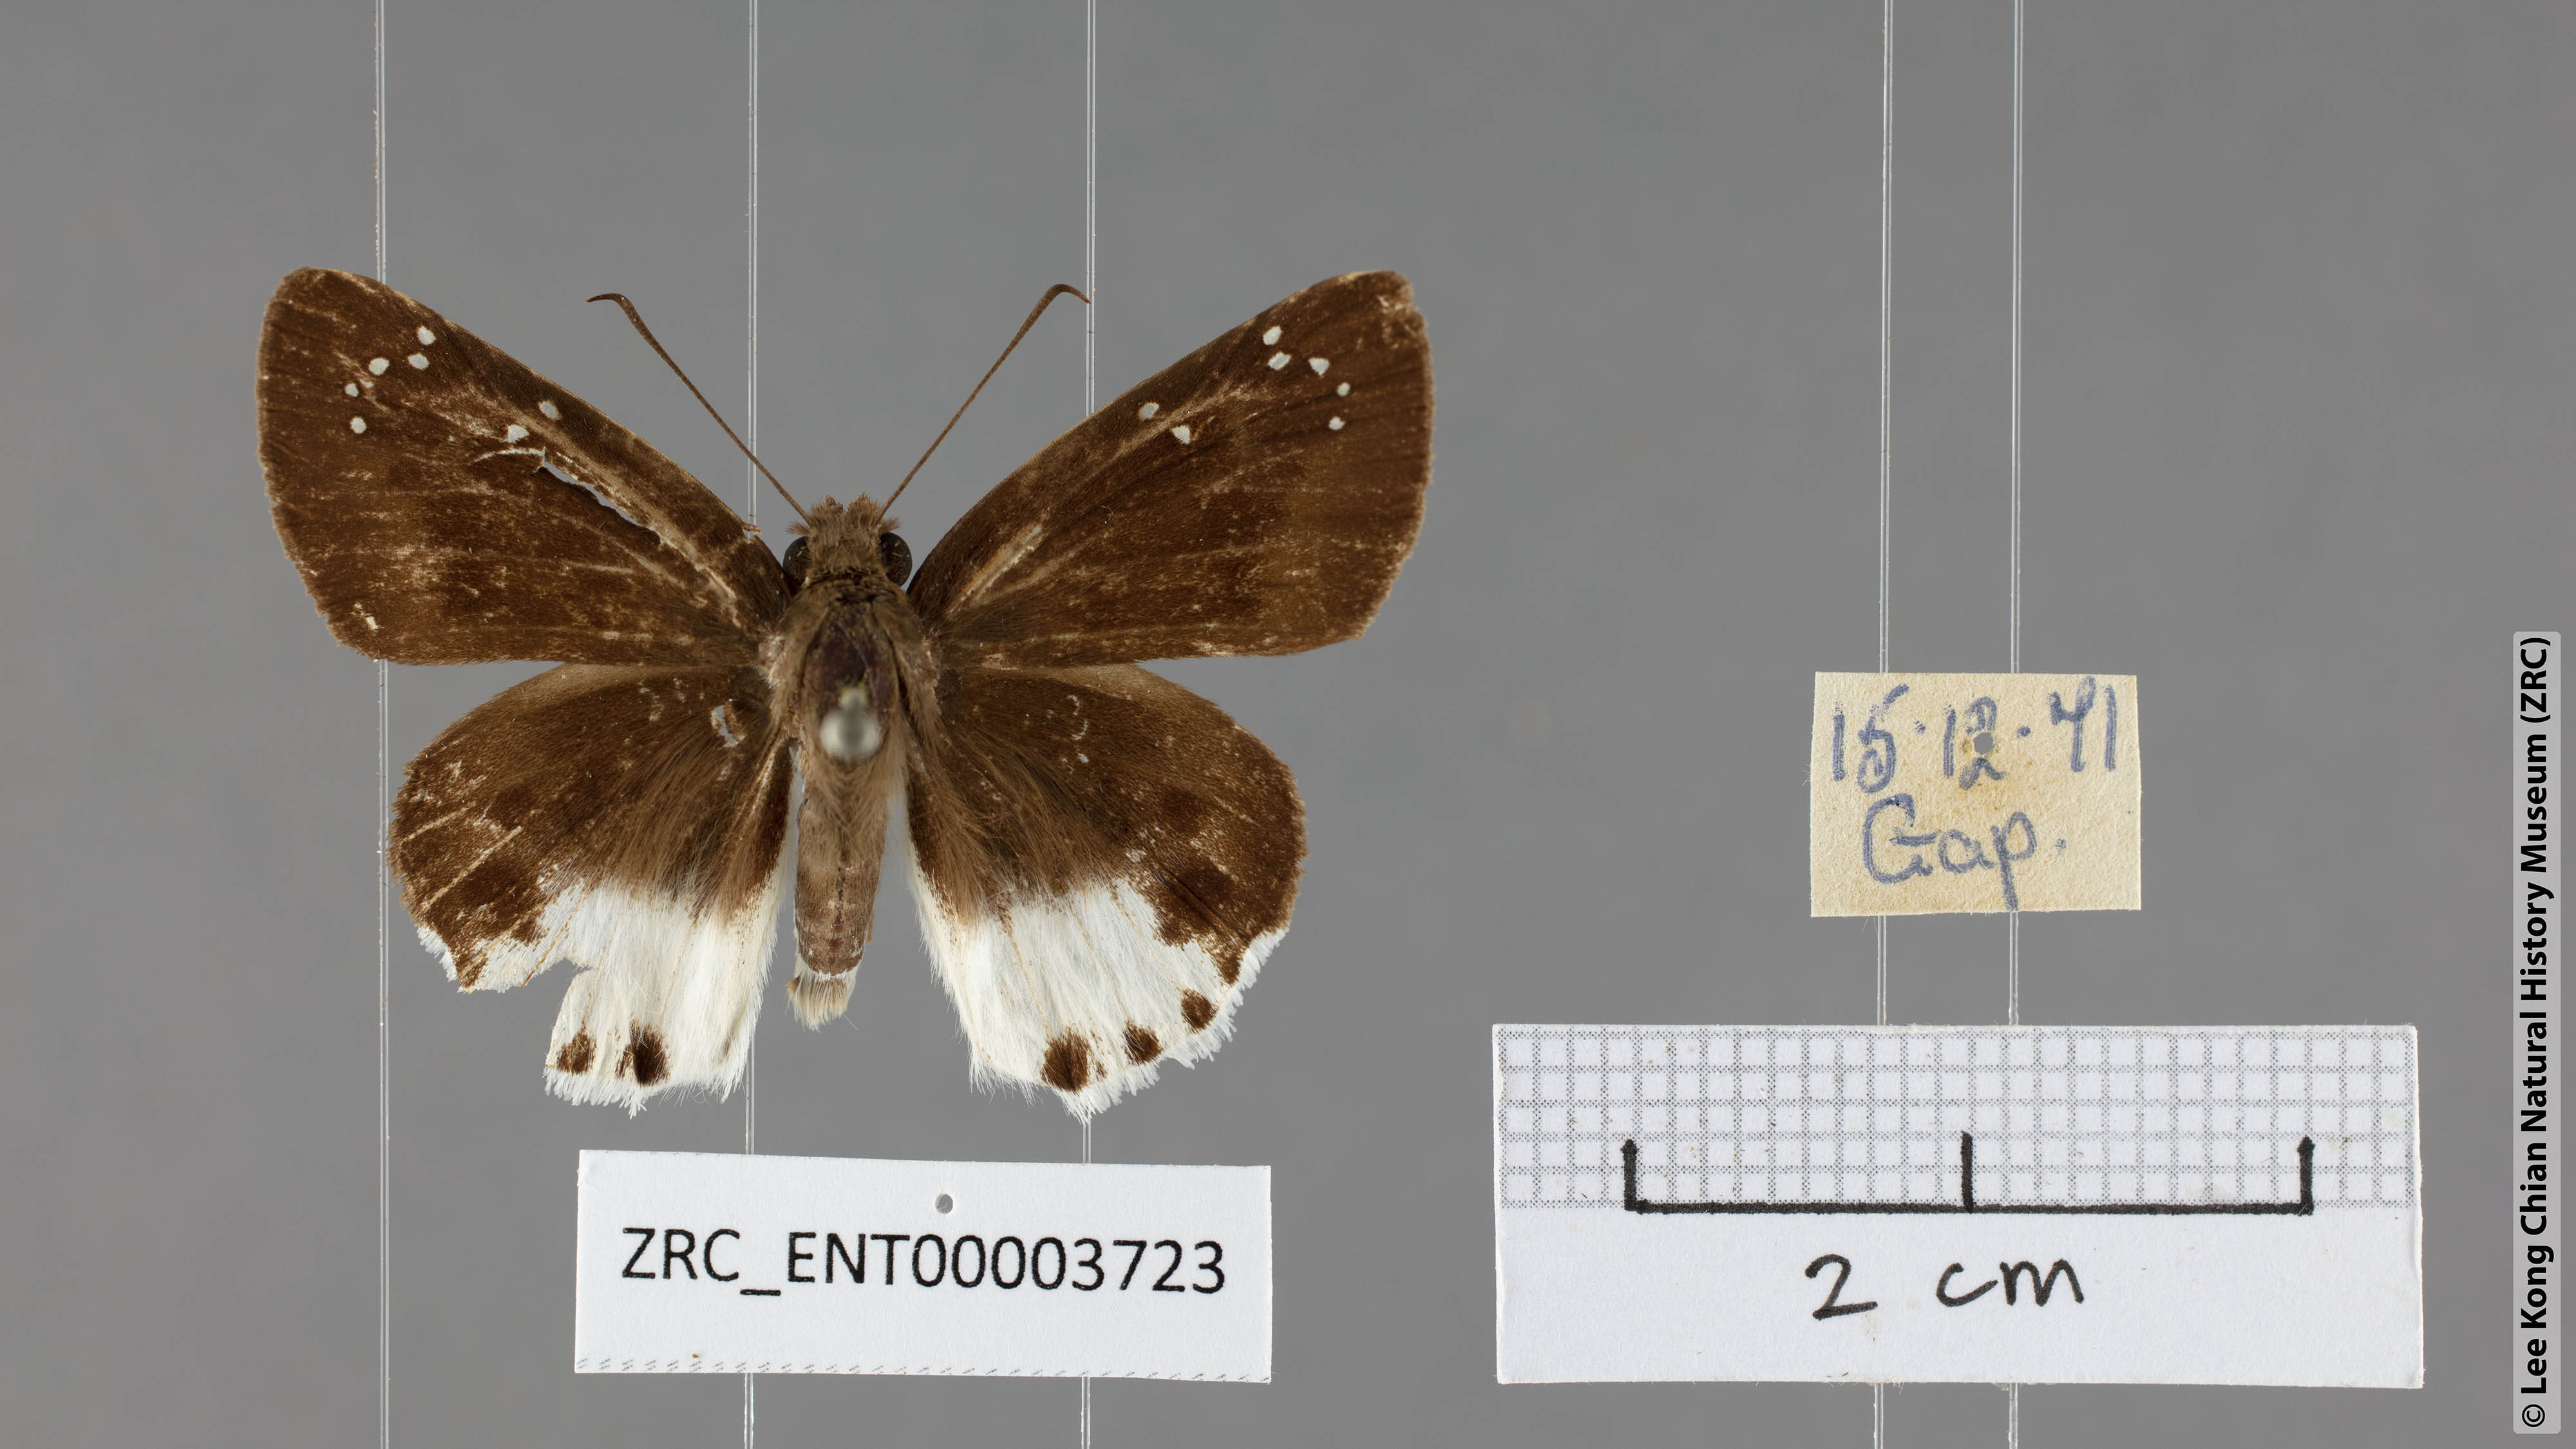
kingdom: Animalia
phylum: Arthropoda
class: Insecta
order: Lepidoptera
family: Hesperiidae
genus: Tagiades
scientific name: Tagiades waterstradti
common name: Waterstradt snow flat
